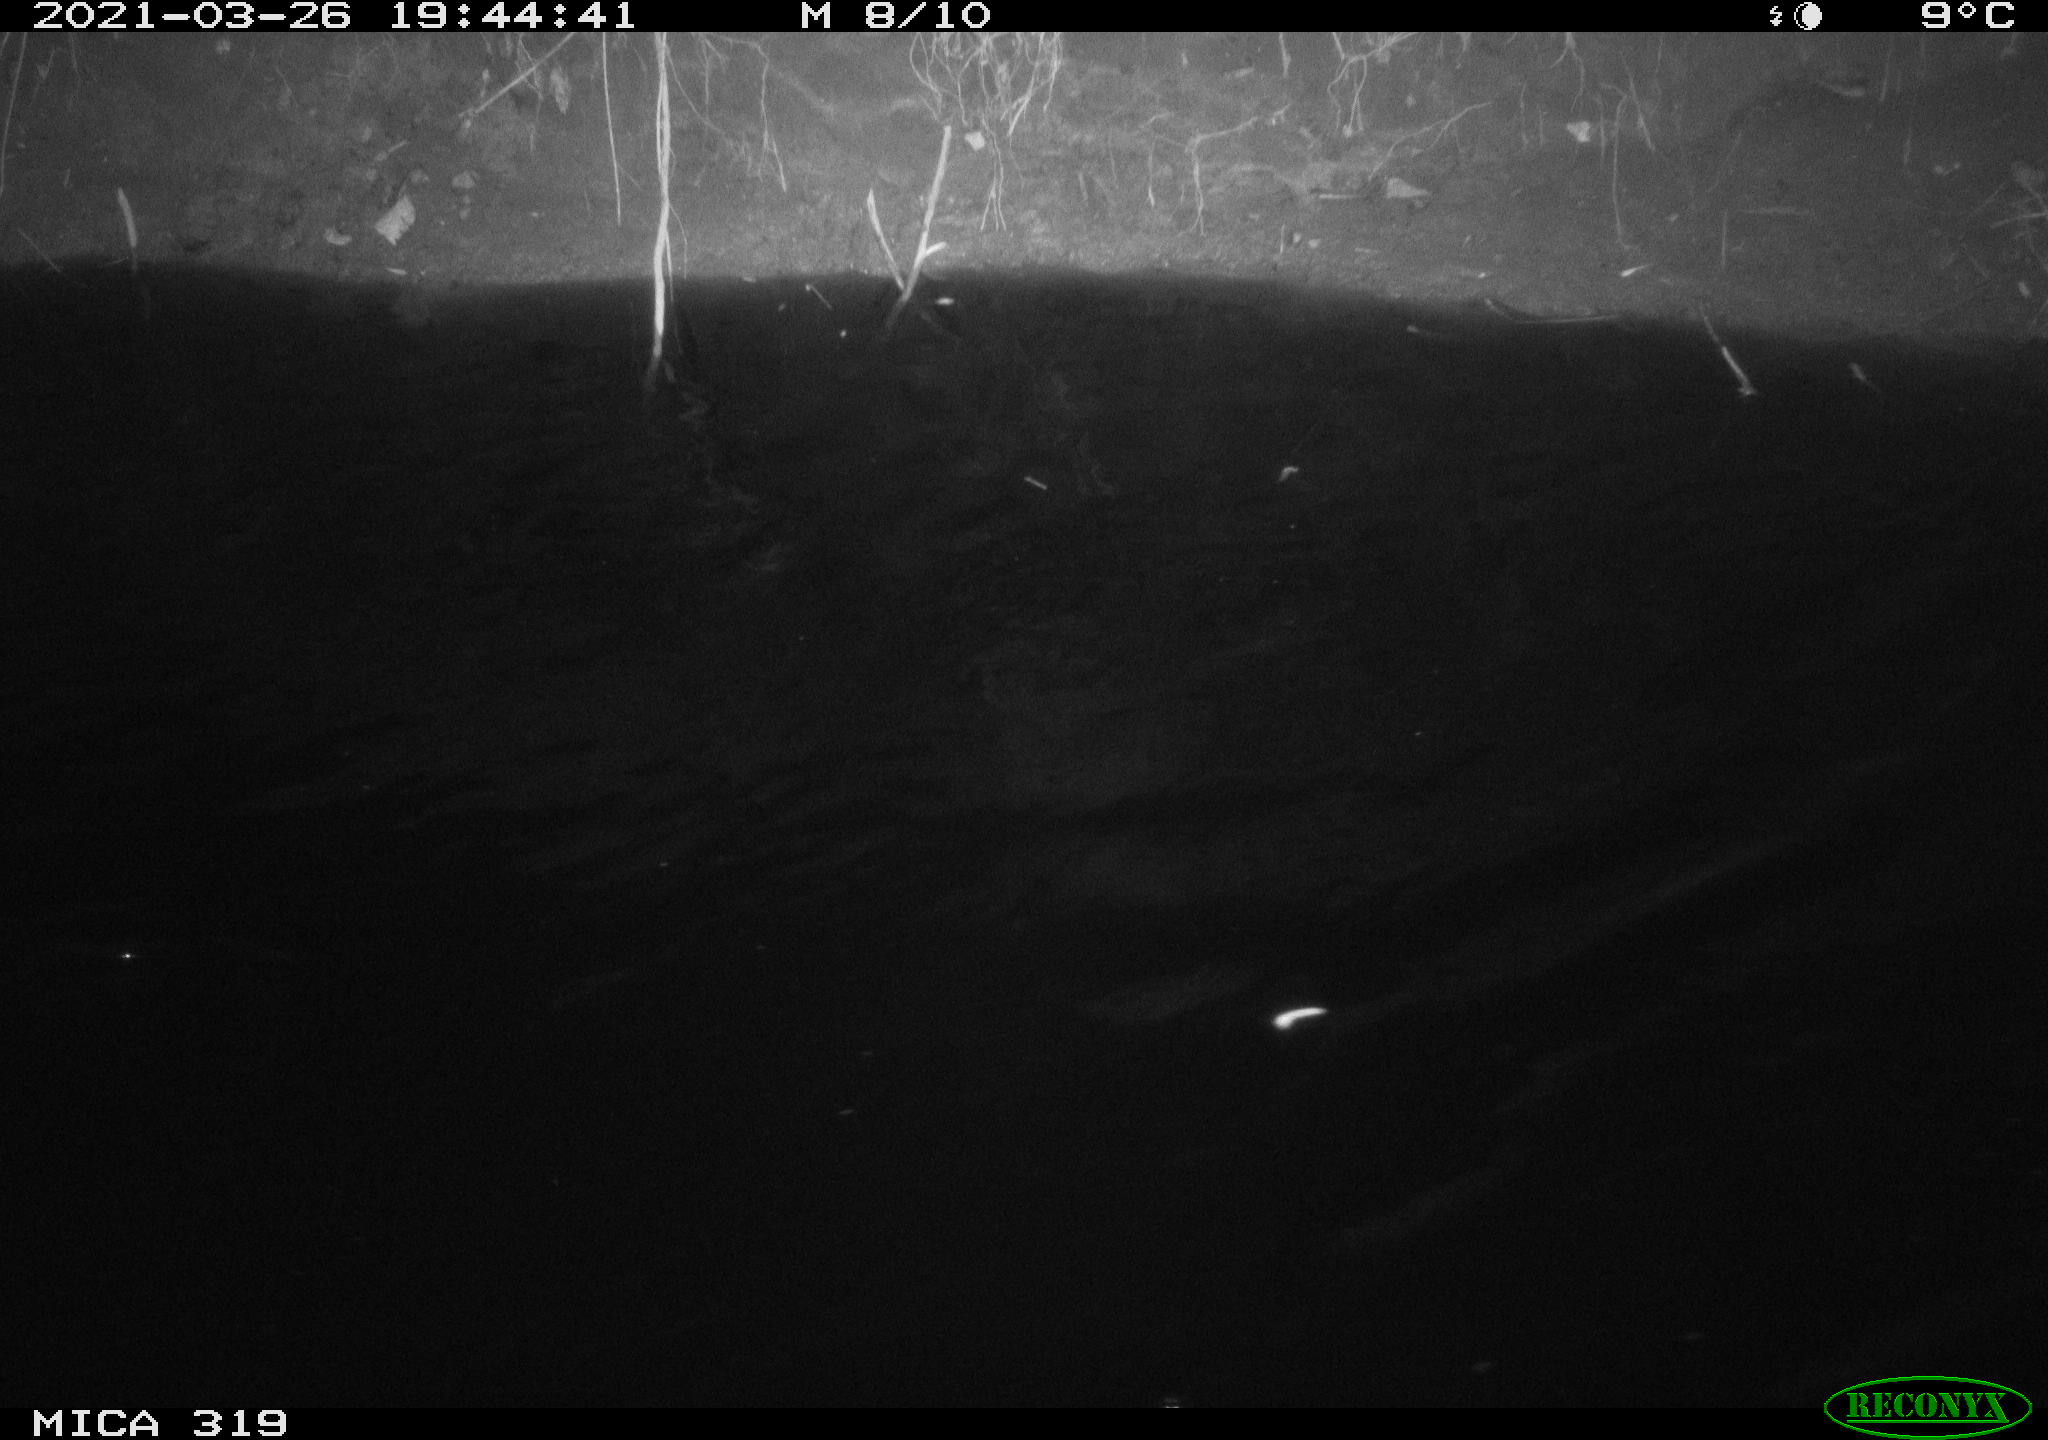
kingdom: Animalia
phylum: Chordata
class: Aves
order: Anseriformes
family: Anatidae
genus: Anas
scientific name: Anas platyrhynchos
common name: Mallard
